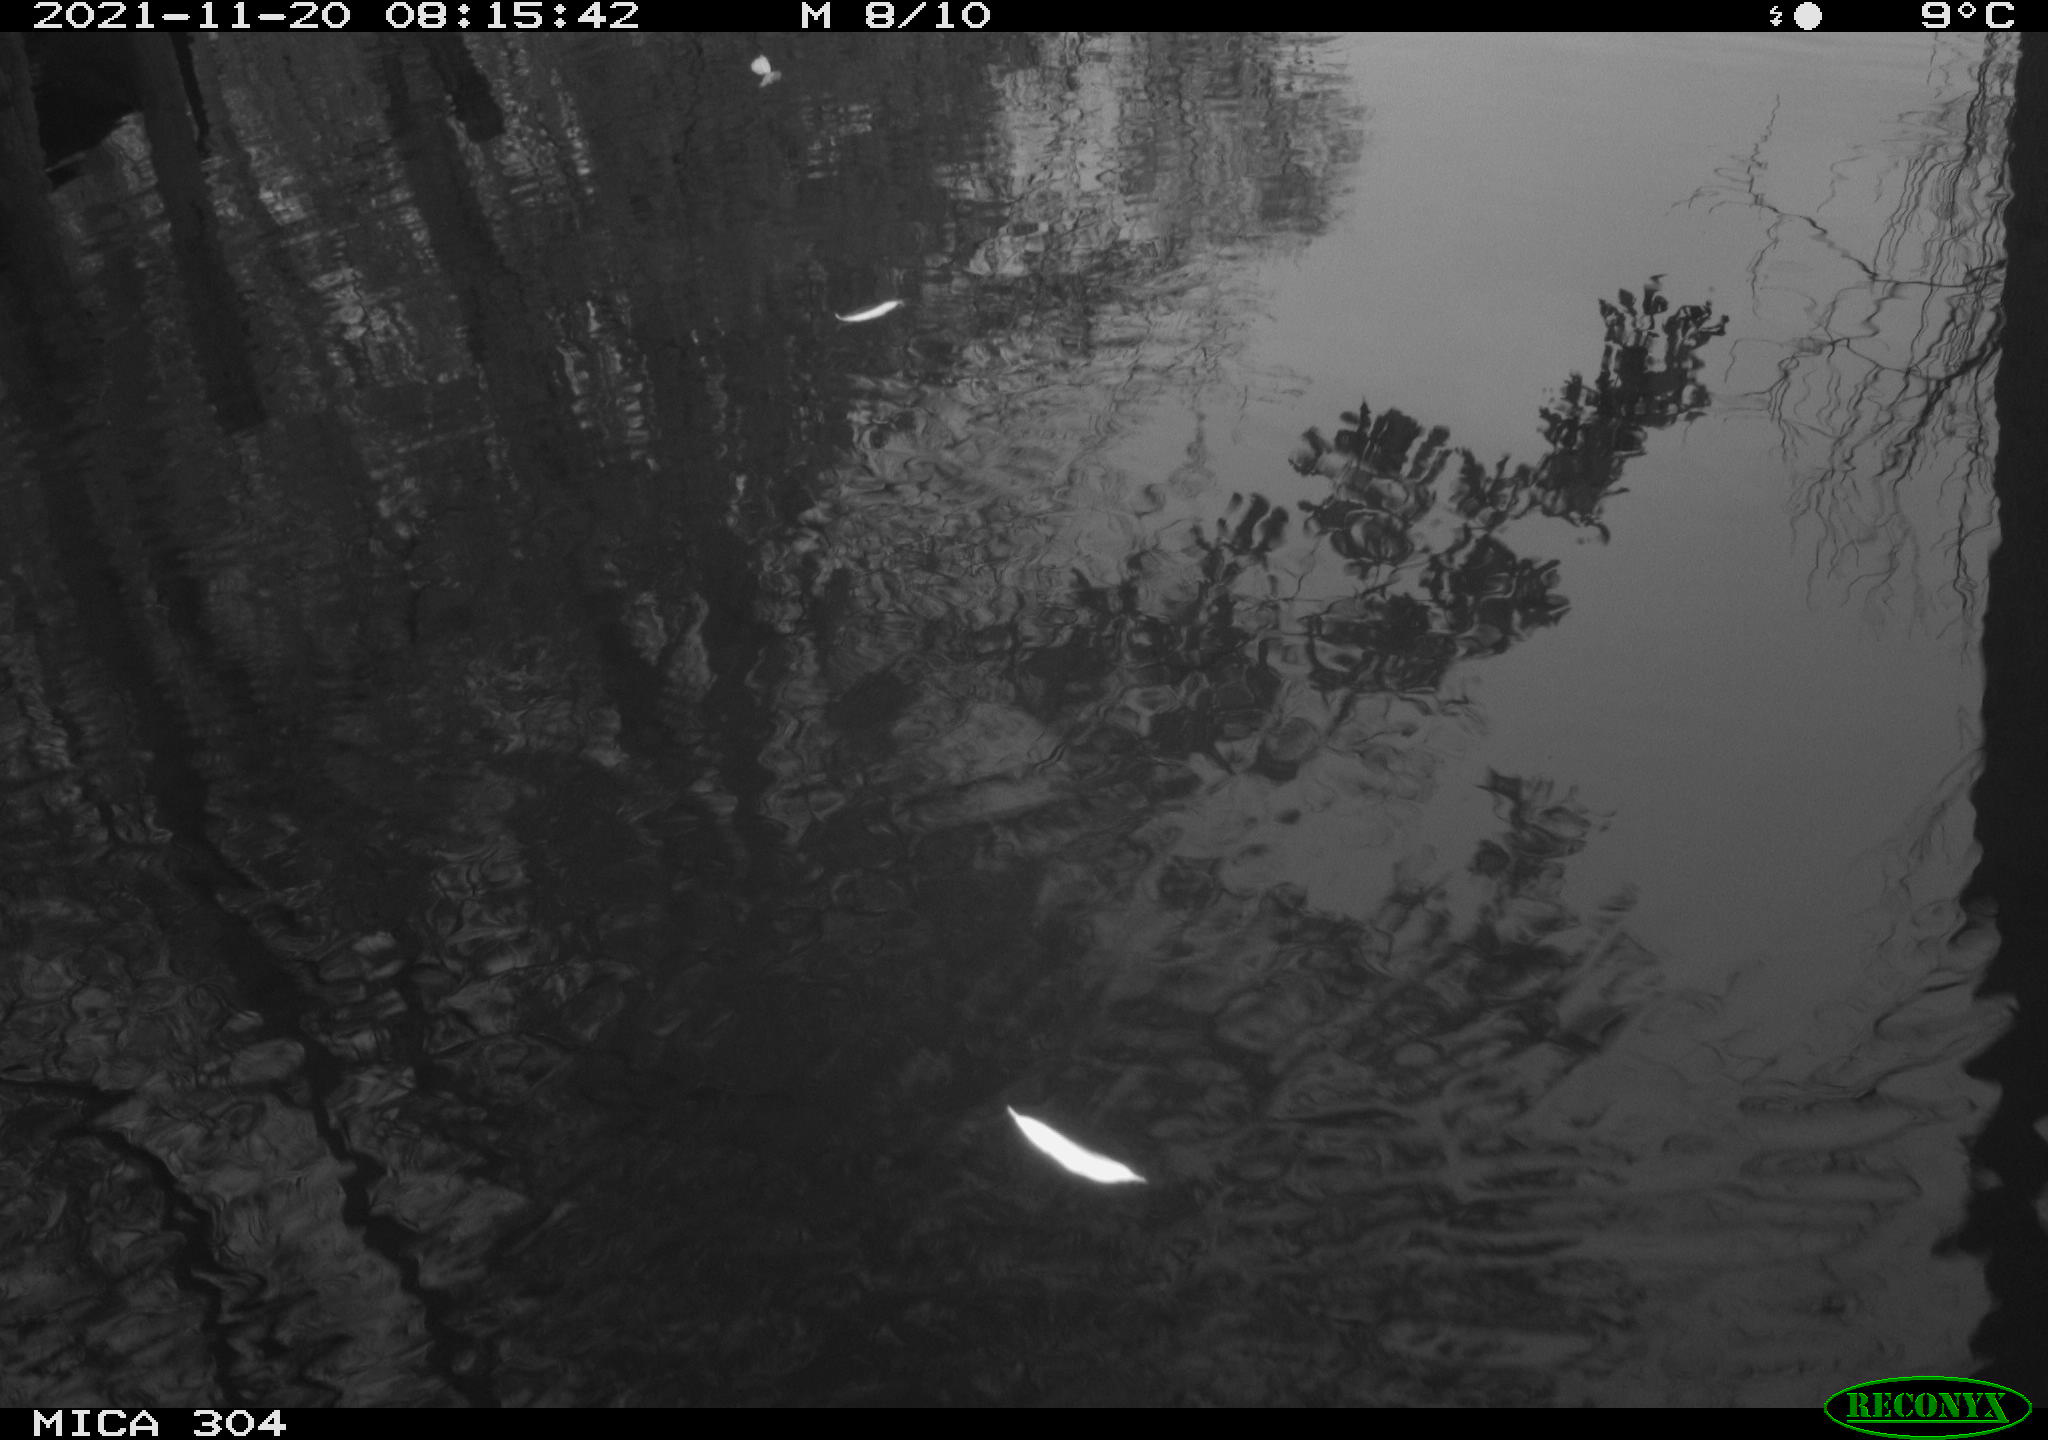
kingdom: Animalia
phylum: Chordata
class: Aves
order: Gruiformes
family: Rallidae
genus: Fulica
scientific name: Fulica atra
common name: Eurasian coot
